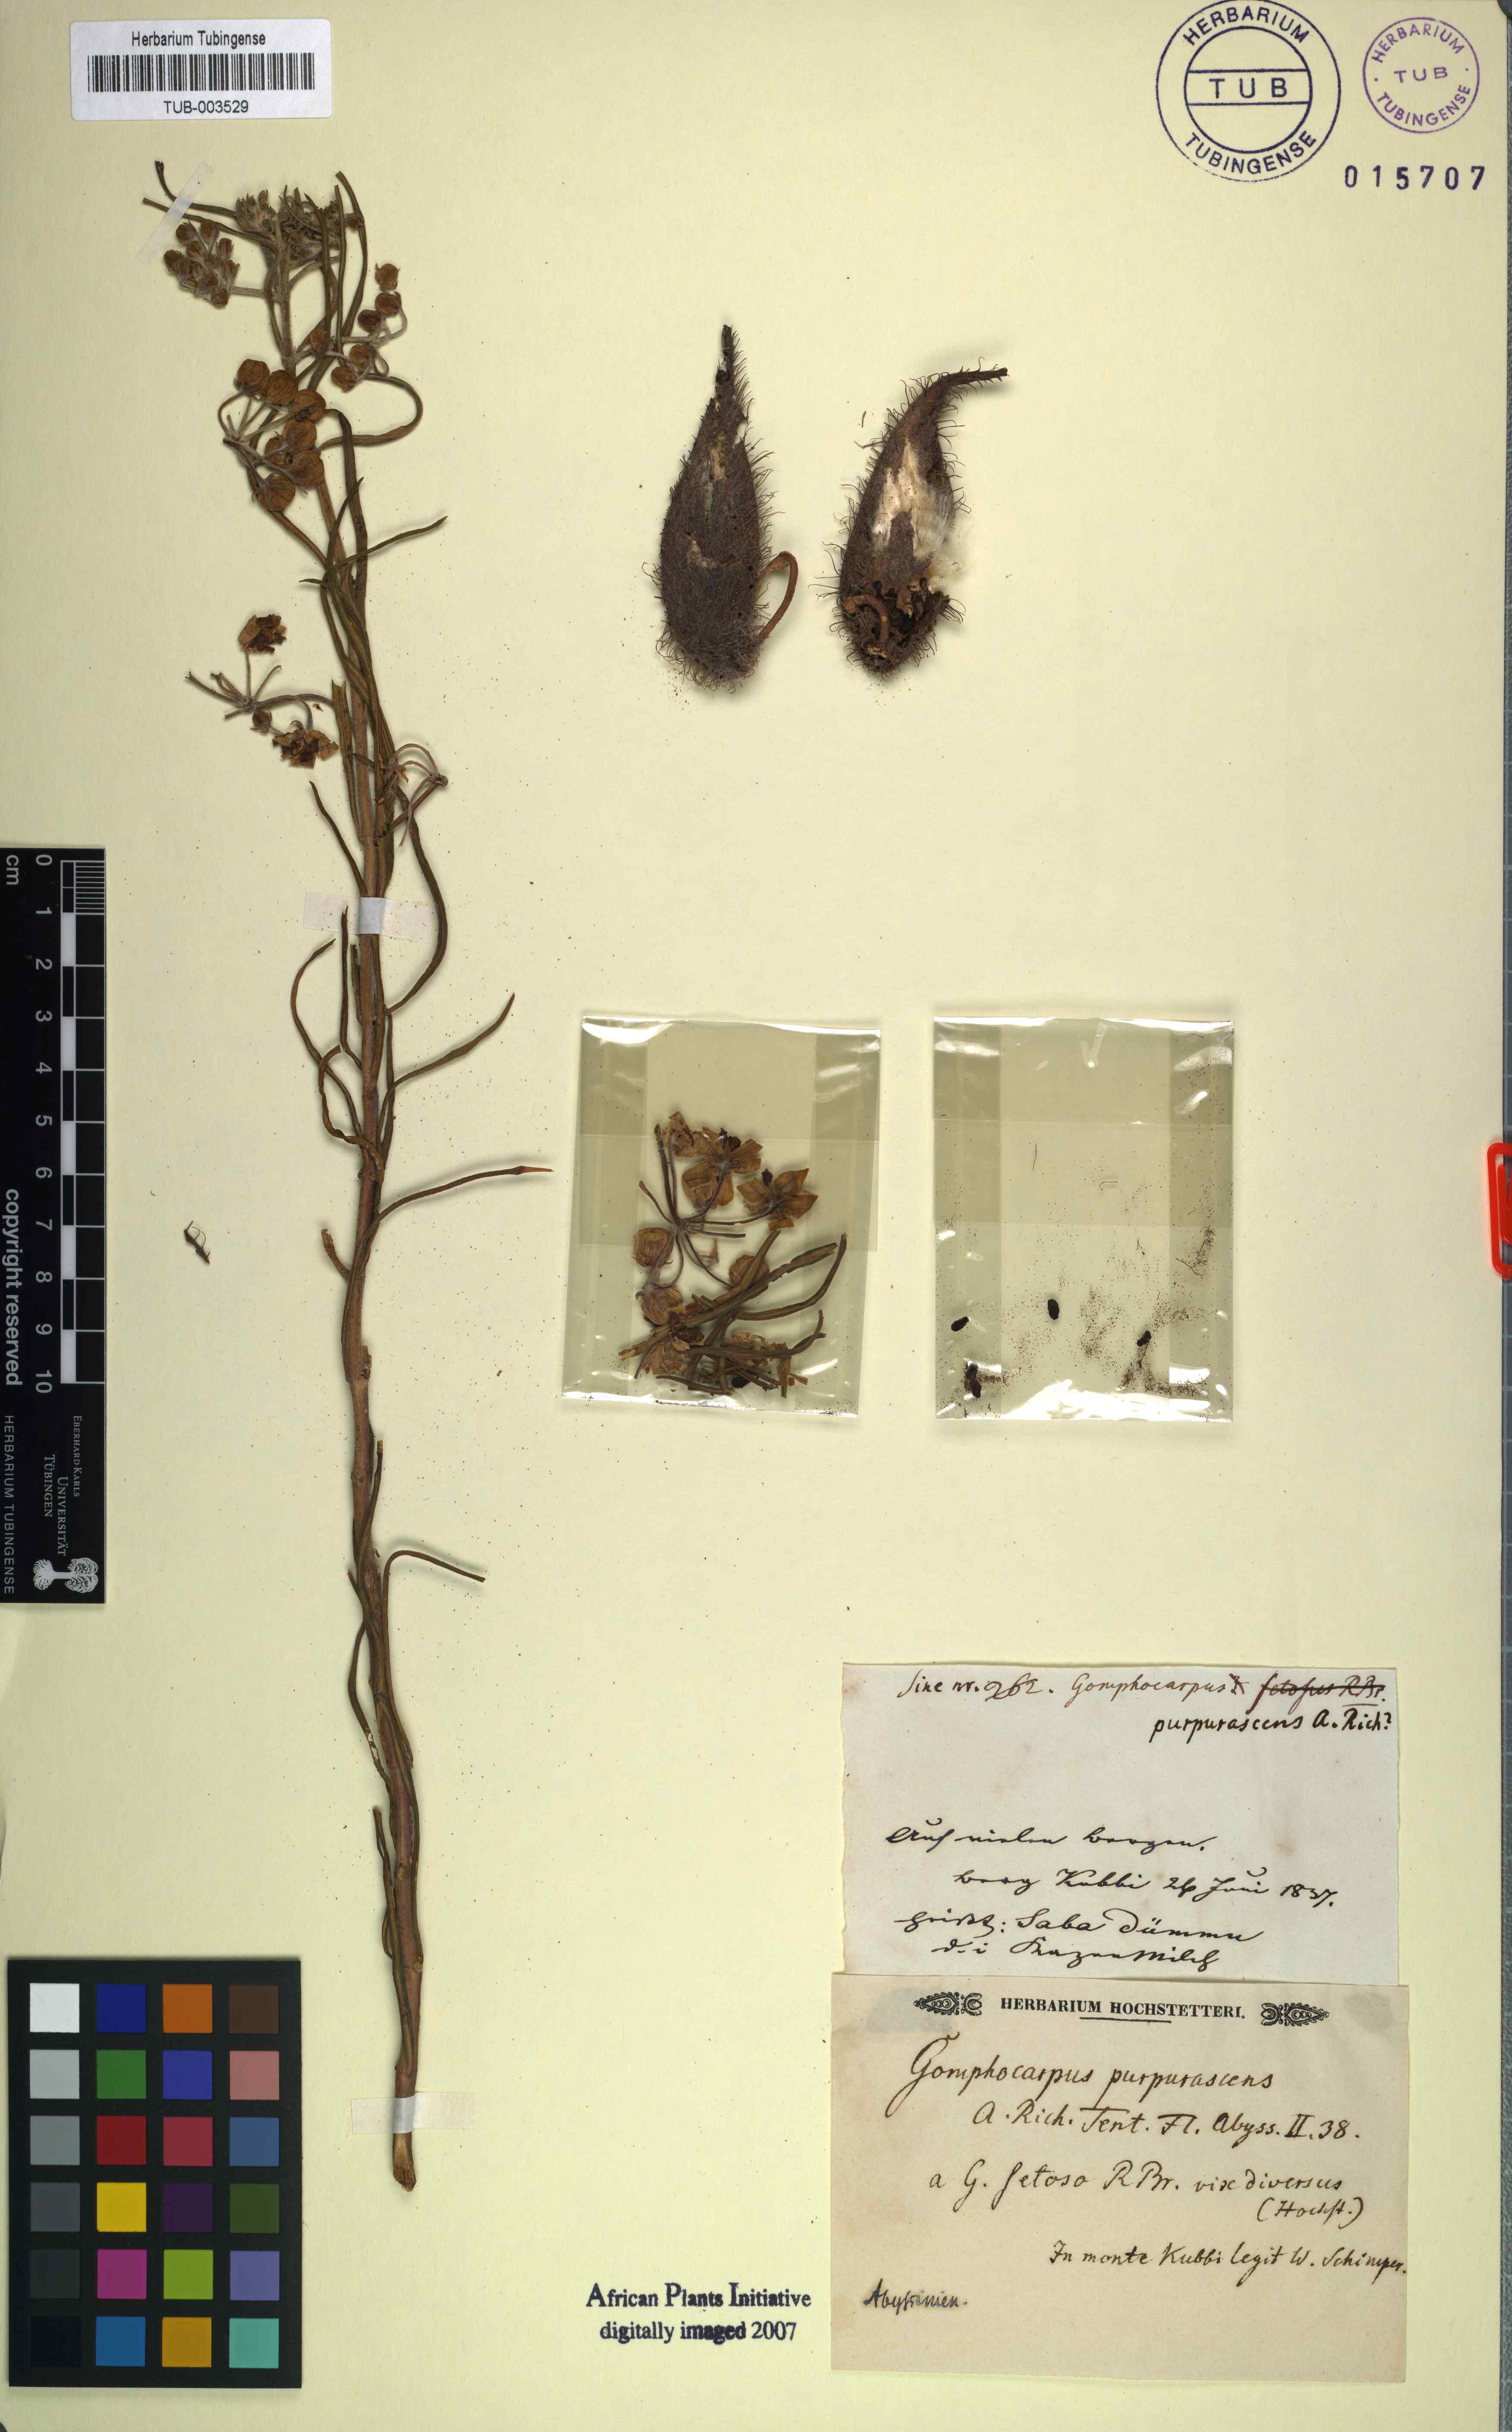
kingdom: Plantae
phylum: Tracheophyta
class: Magnoliopsida
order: Gentianales
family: Apocynaceae
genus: Gomphocarpus
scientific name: Gomphocarpus purpurascens
